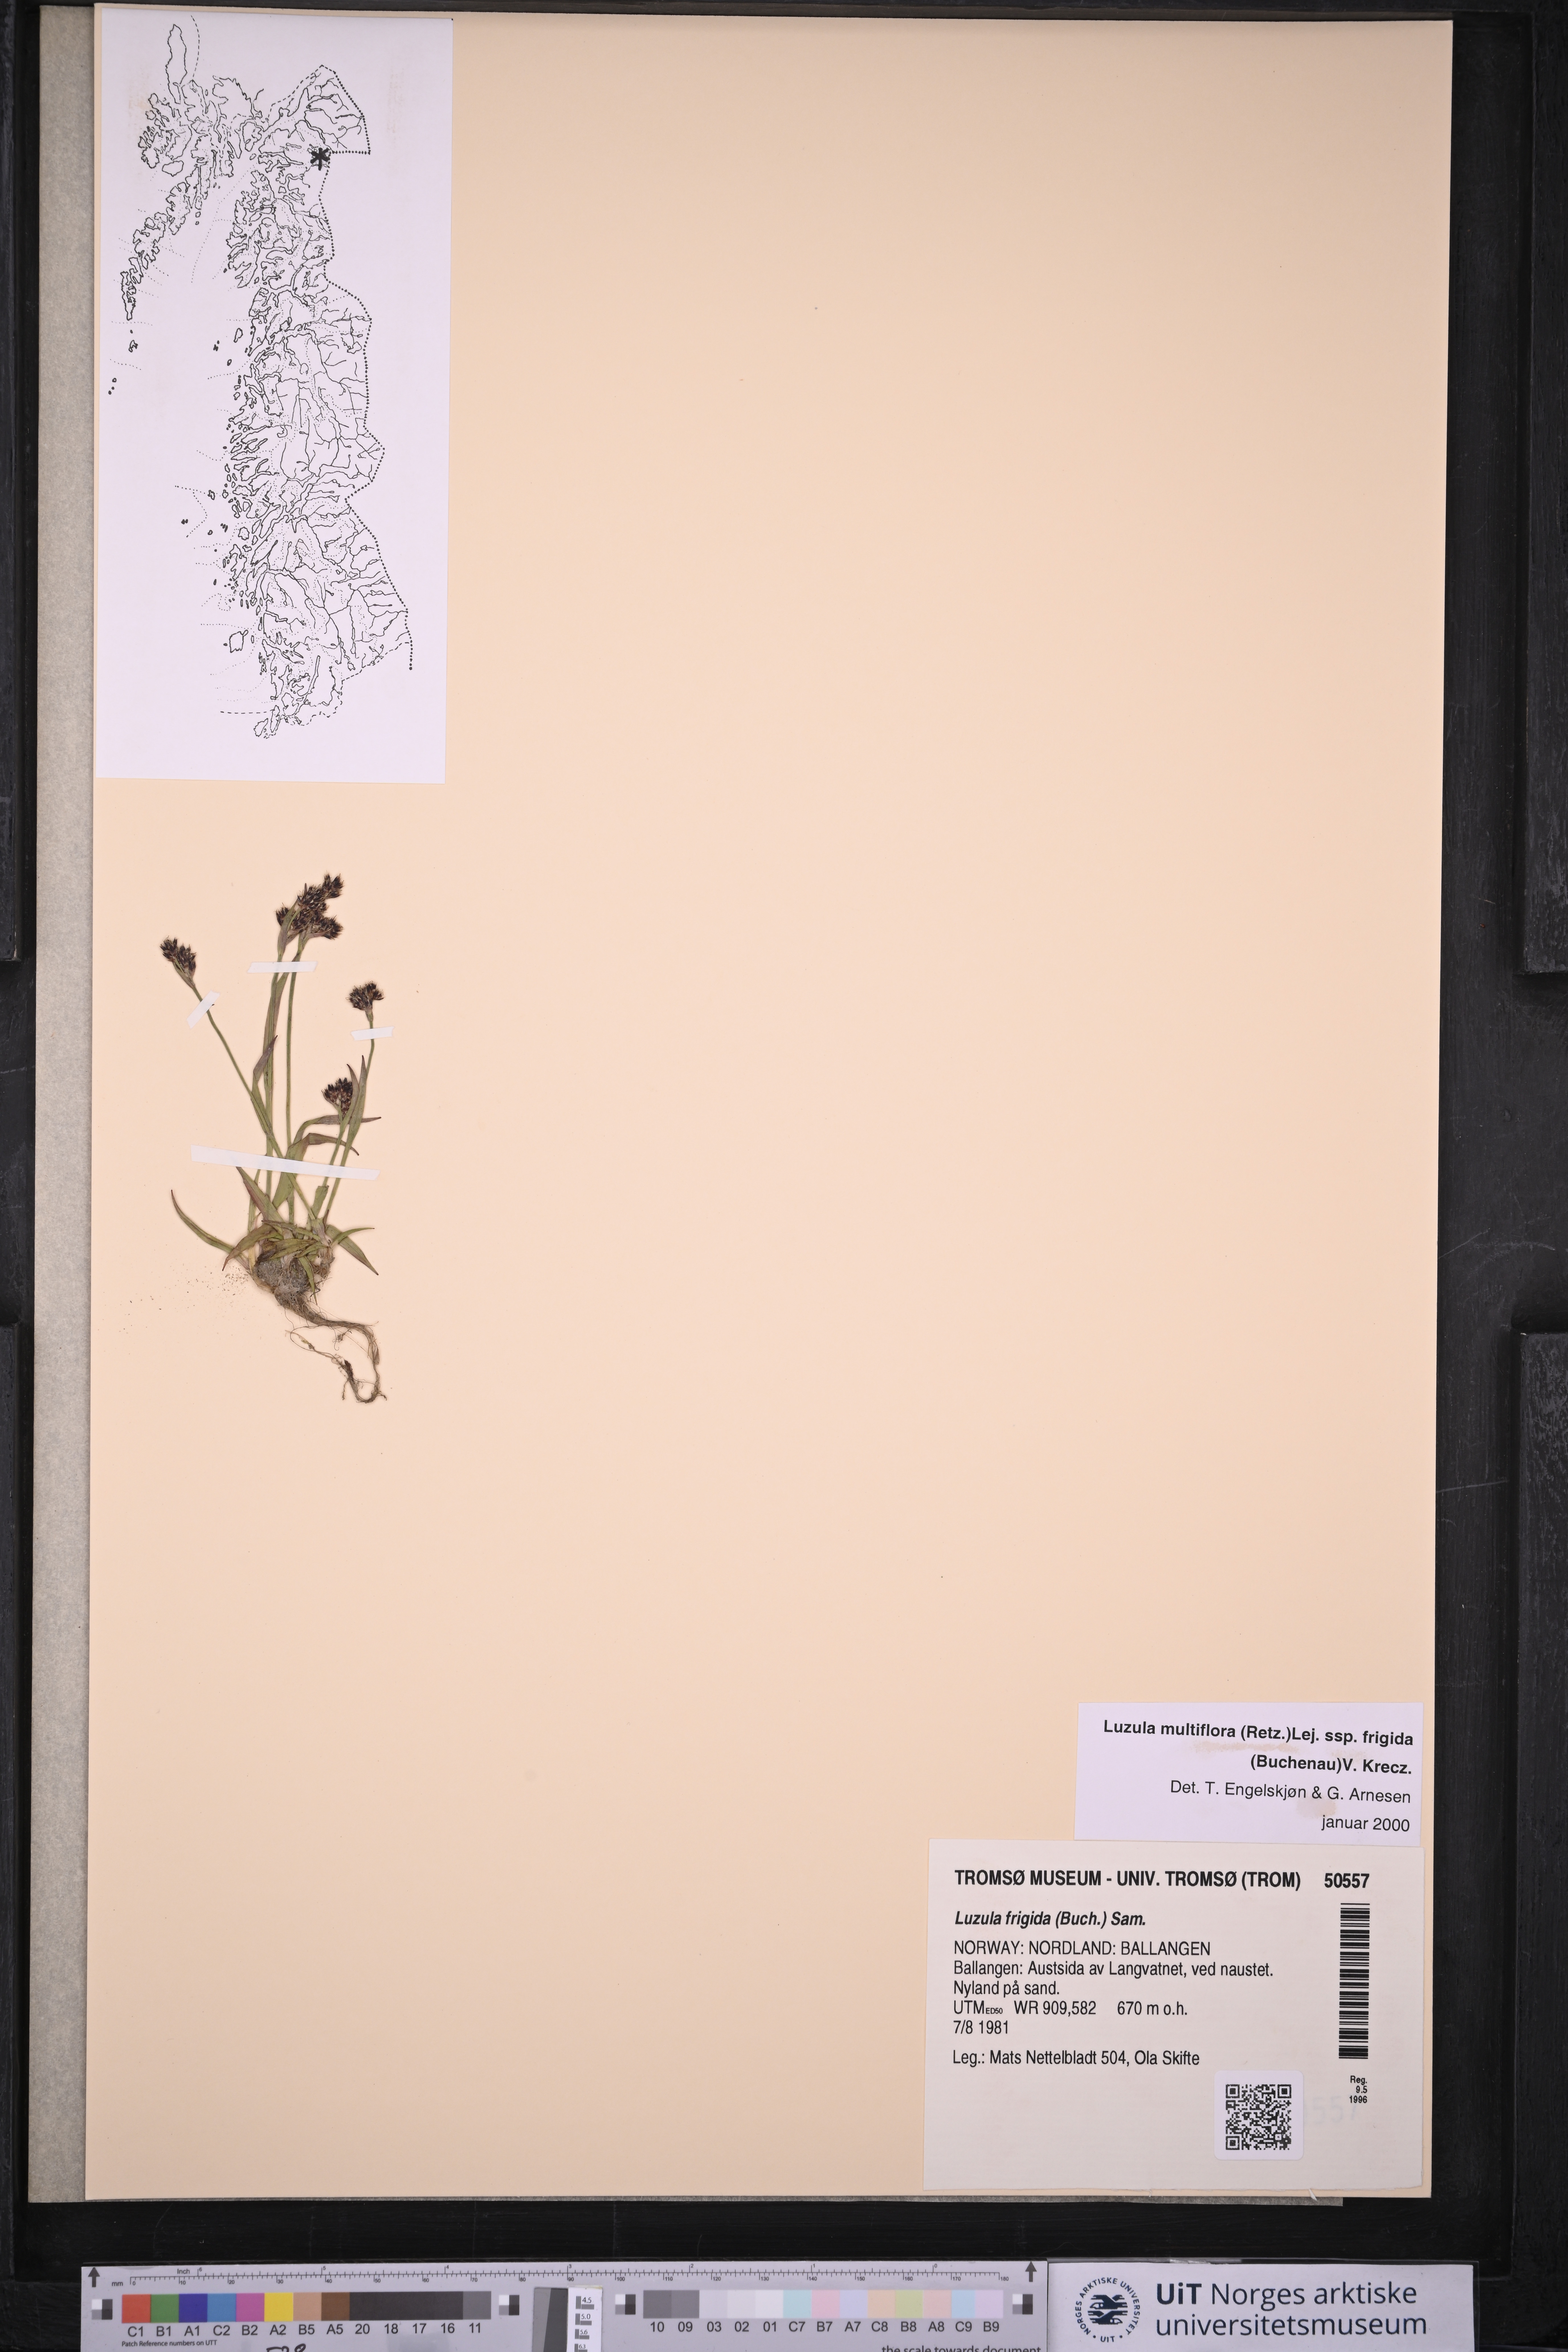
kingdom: Plantae
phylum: Tracheophyta
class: Liliopsida
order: Poales
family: Juncaceae
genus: Luzula
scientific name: Luzula multiflora
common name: Heath wood-rush
